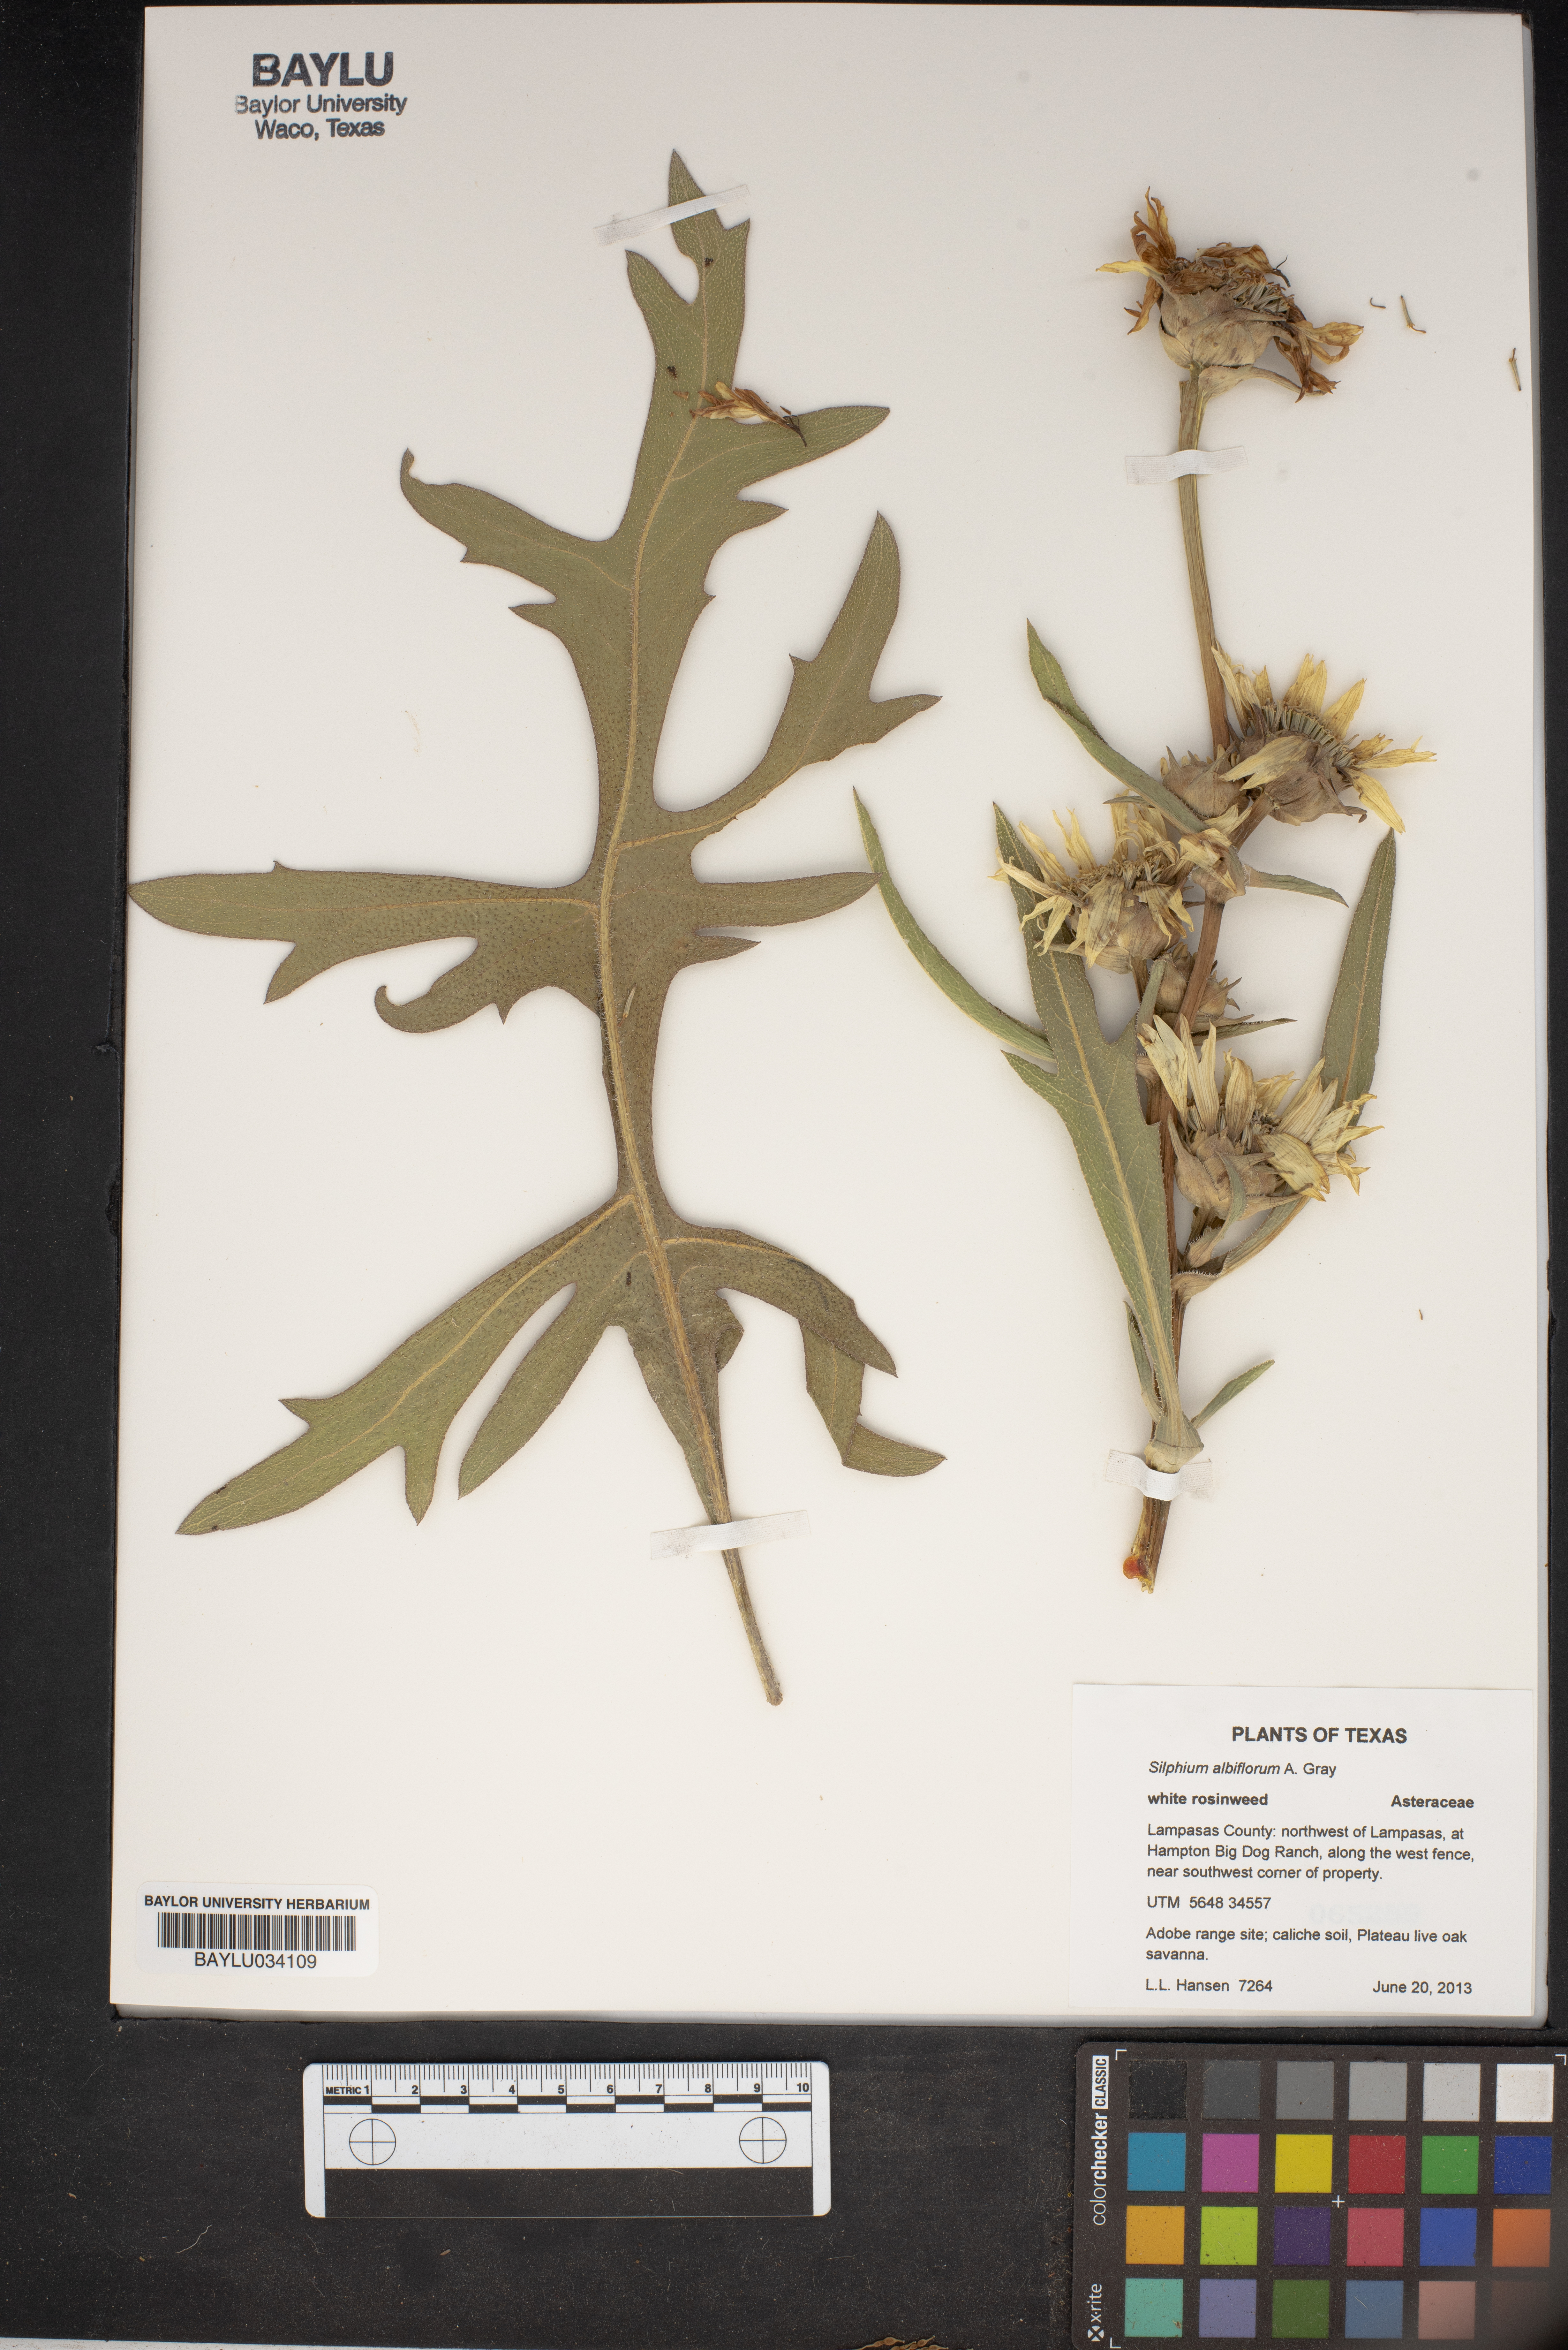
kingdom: Plantae
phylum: Tracheophyta
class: Magnoliopsida
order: Asterales
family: Asteraceae
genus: Silphium
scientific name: Silphium albiflorum
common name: White rosinweed
